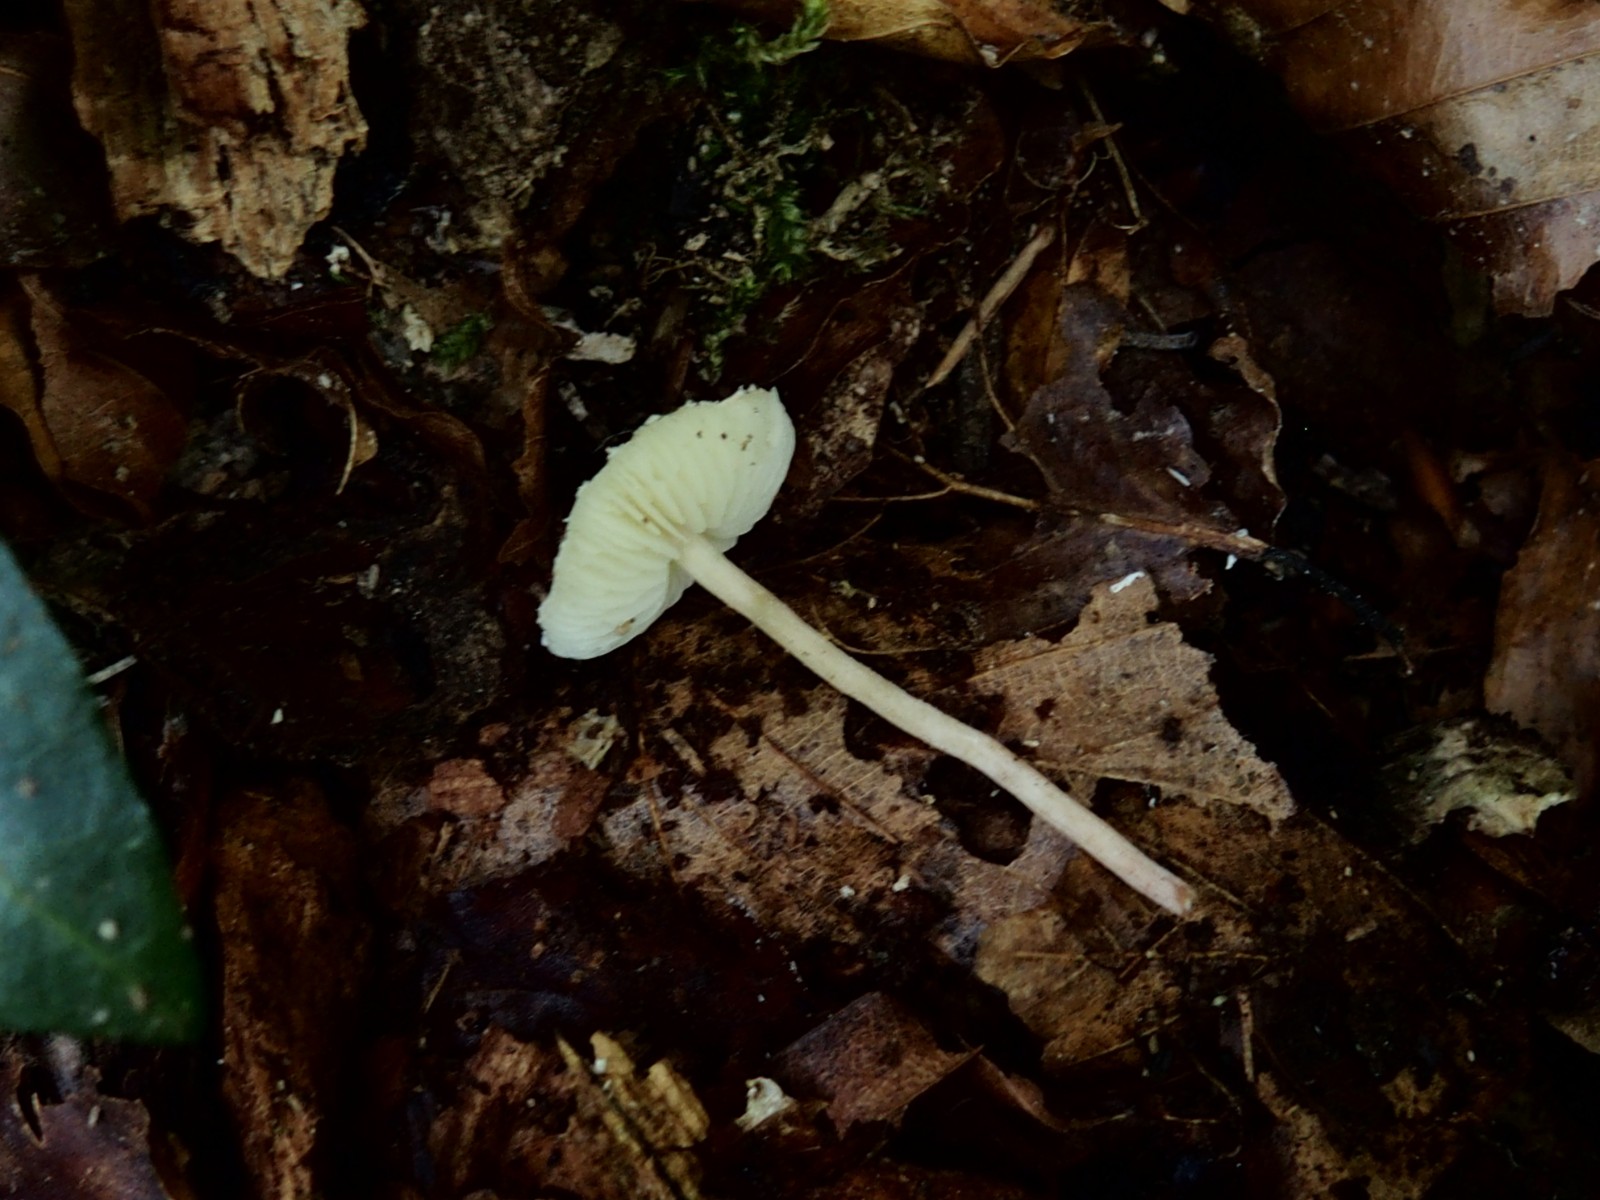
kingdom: Fungi
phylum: Basidiomycota
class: Agaricomycetes
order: Agaricales
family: Agaricaceae
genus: Cystolepiota
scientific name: Cystolepiota seminuda
